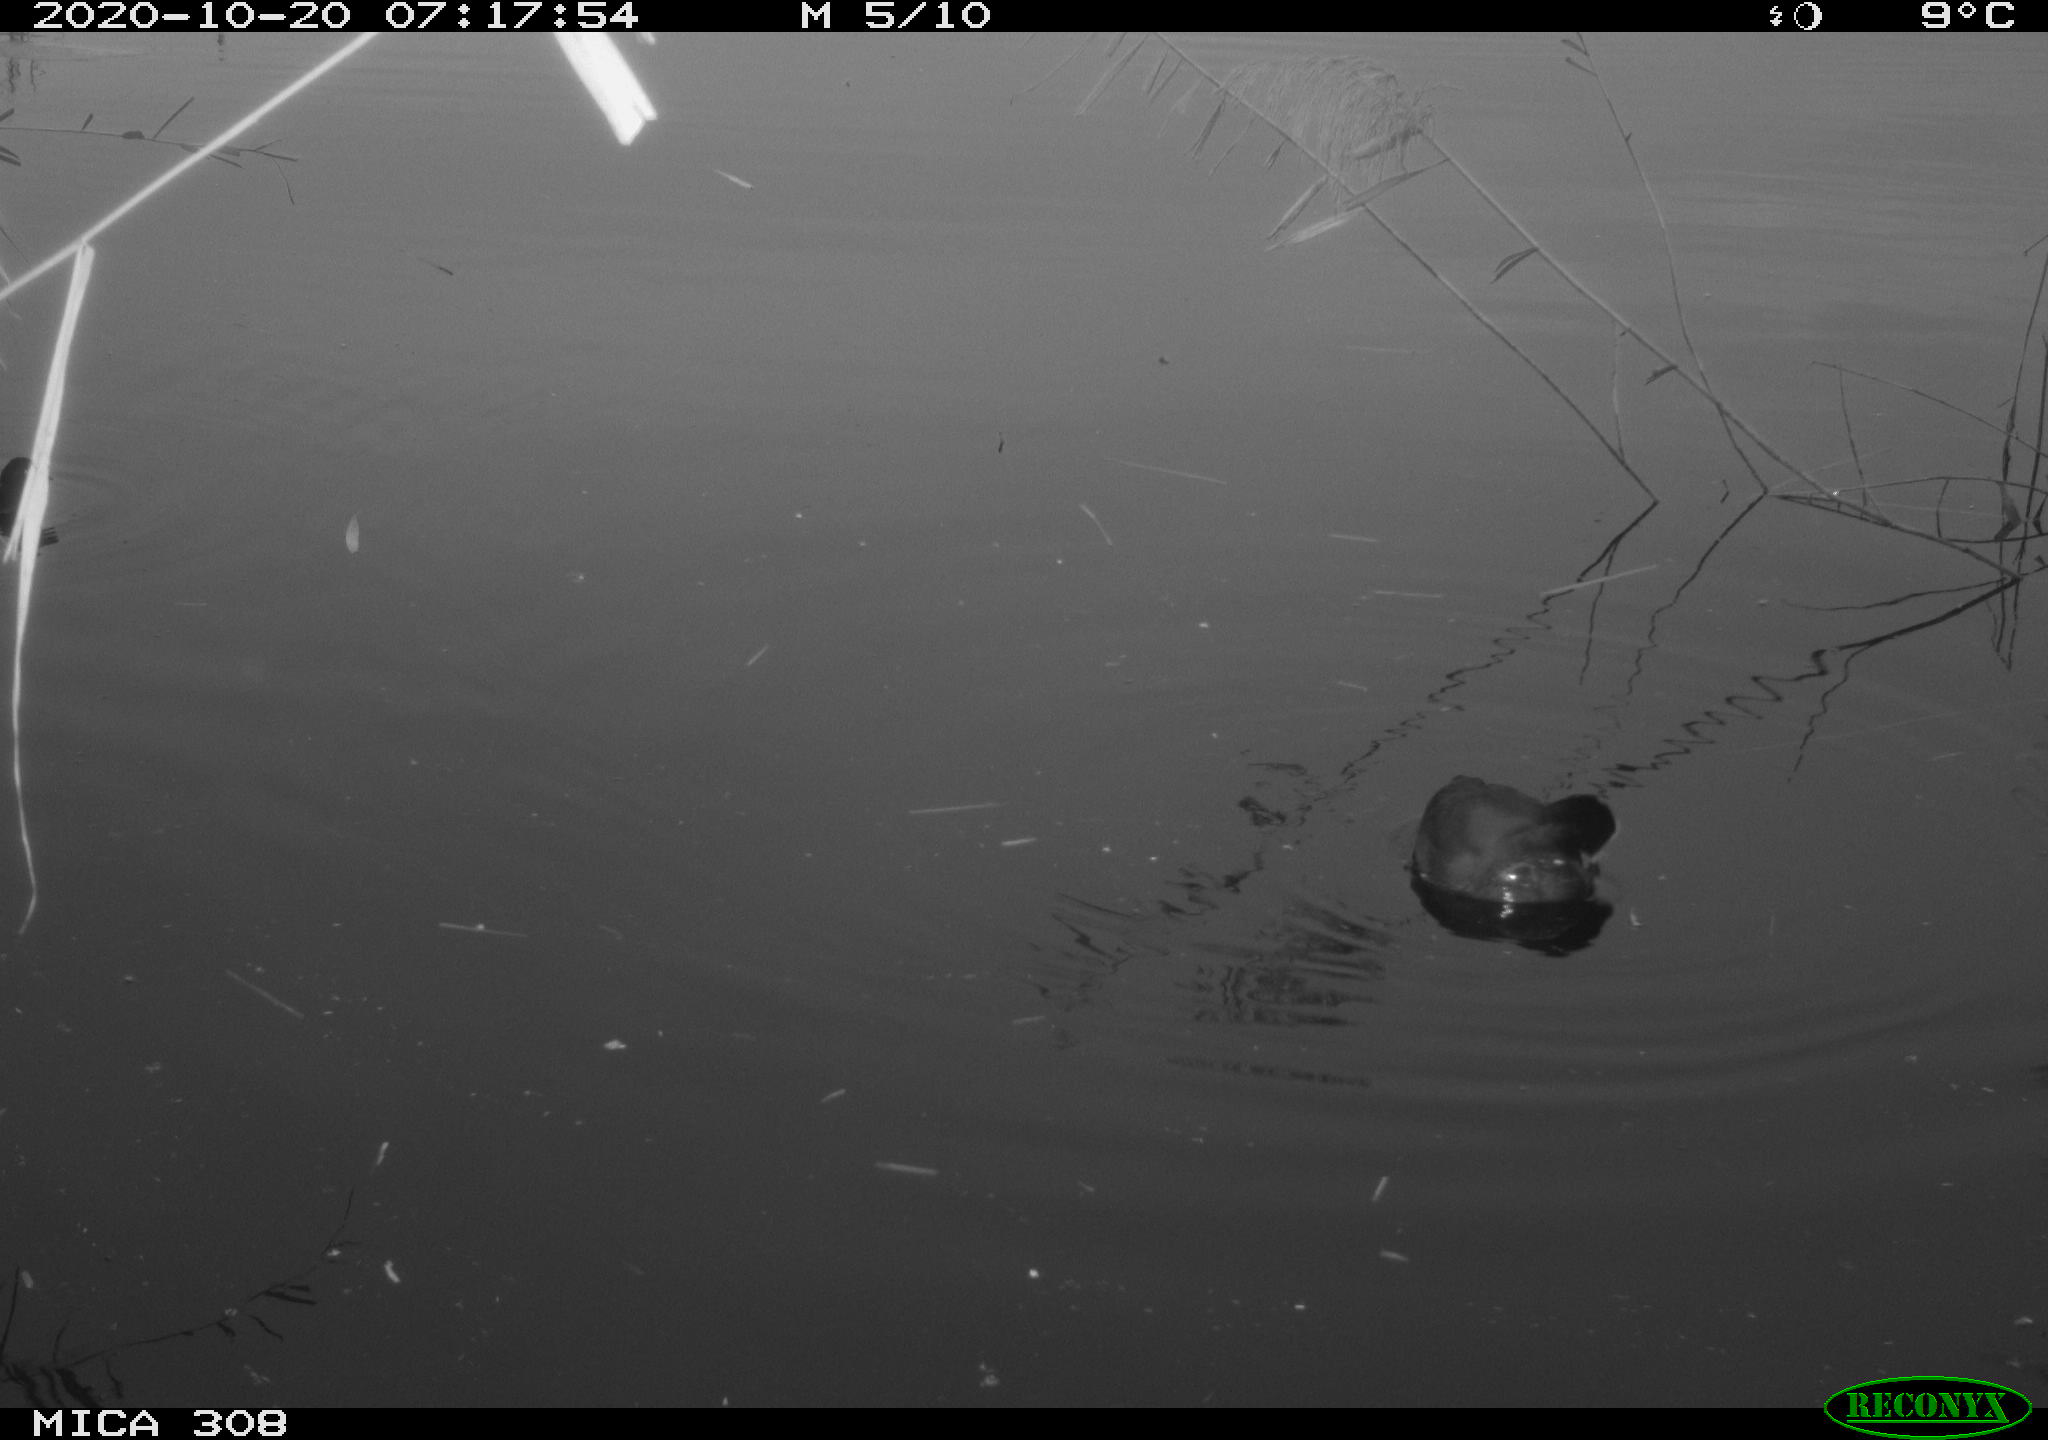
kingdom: Animalia
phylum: Chordata
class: Aves
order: Gruiformes
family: Rallidae
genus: Gallinula
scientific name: Gallinula chloropus
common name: Common moorhen
